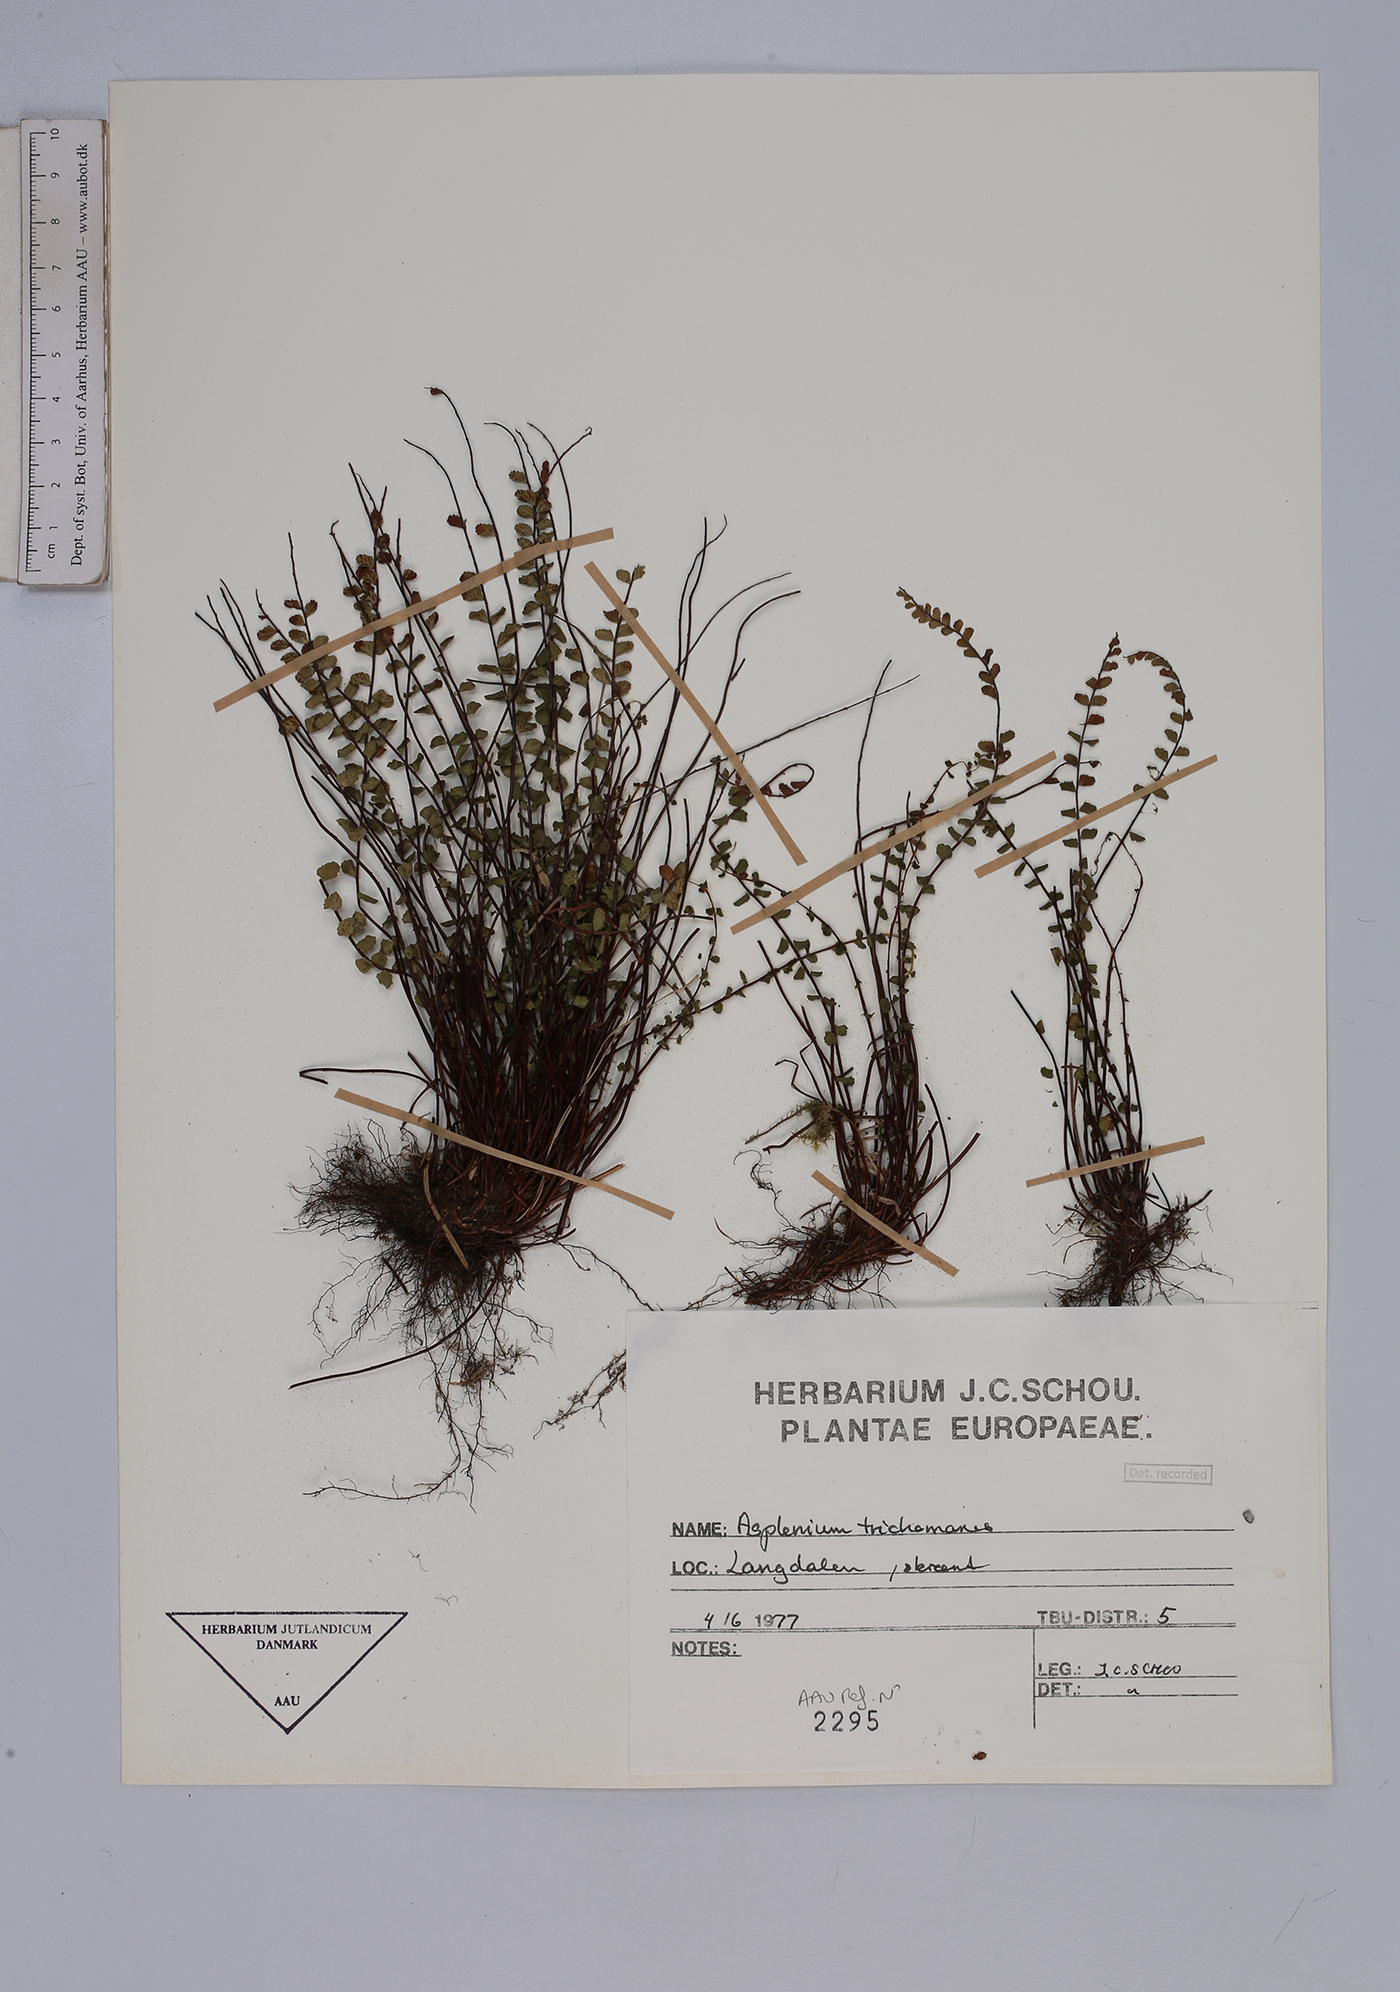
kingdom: Plantae
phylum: Tracheophyta
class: Polypodiopsida
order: Polypodiales
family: Aspleniaceae
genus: Asplenium
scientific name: Asplenium trichomanes
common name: Maidenhair spleenwort
